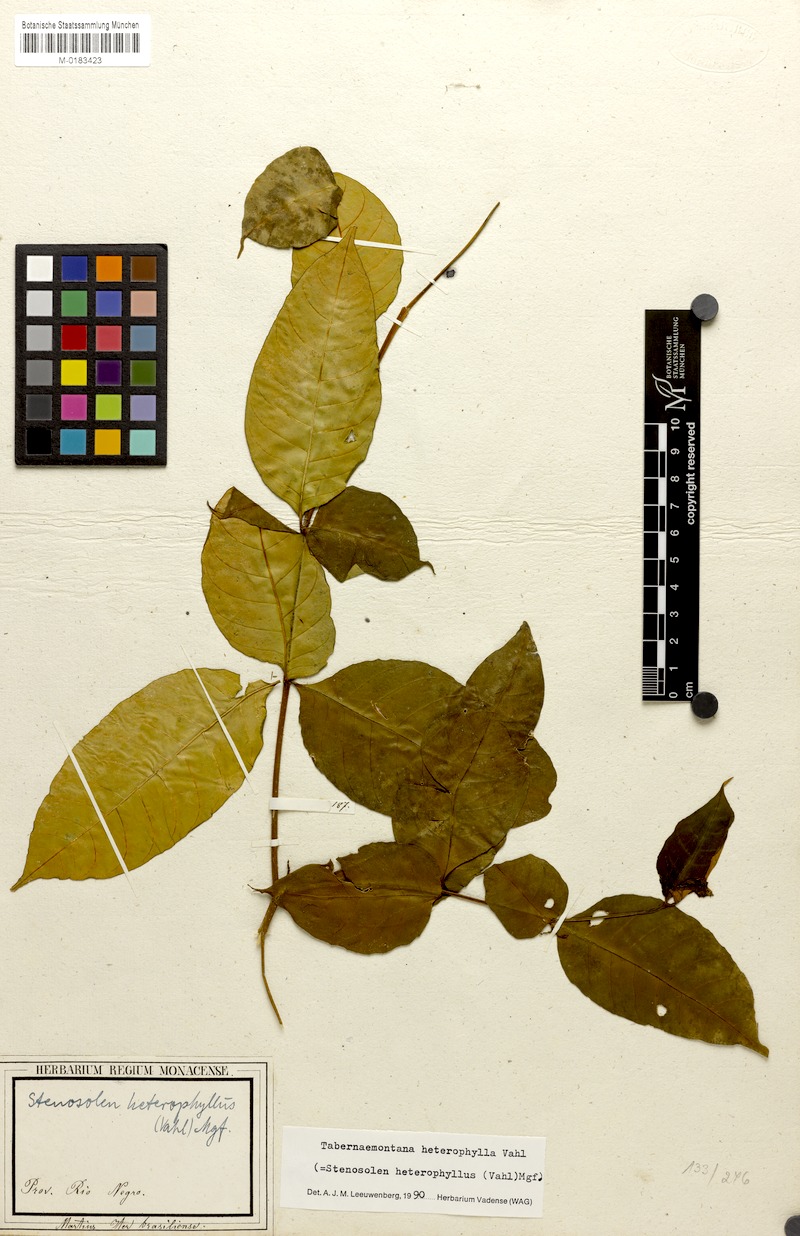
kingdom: Plantae
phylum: Tracheophyta
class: Magnoliopsida
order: Gentianales
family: Apocynaceae
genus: Tabernaemontana
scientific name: Tabernaemontana heterophylla
